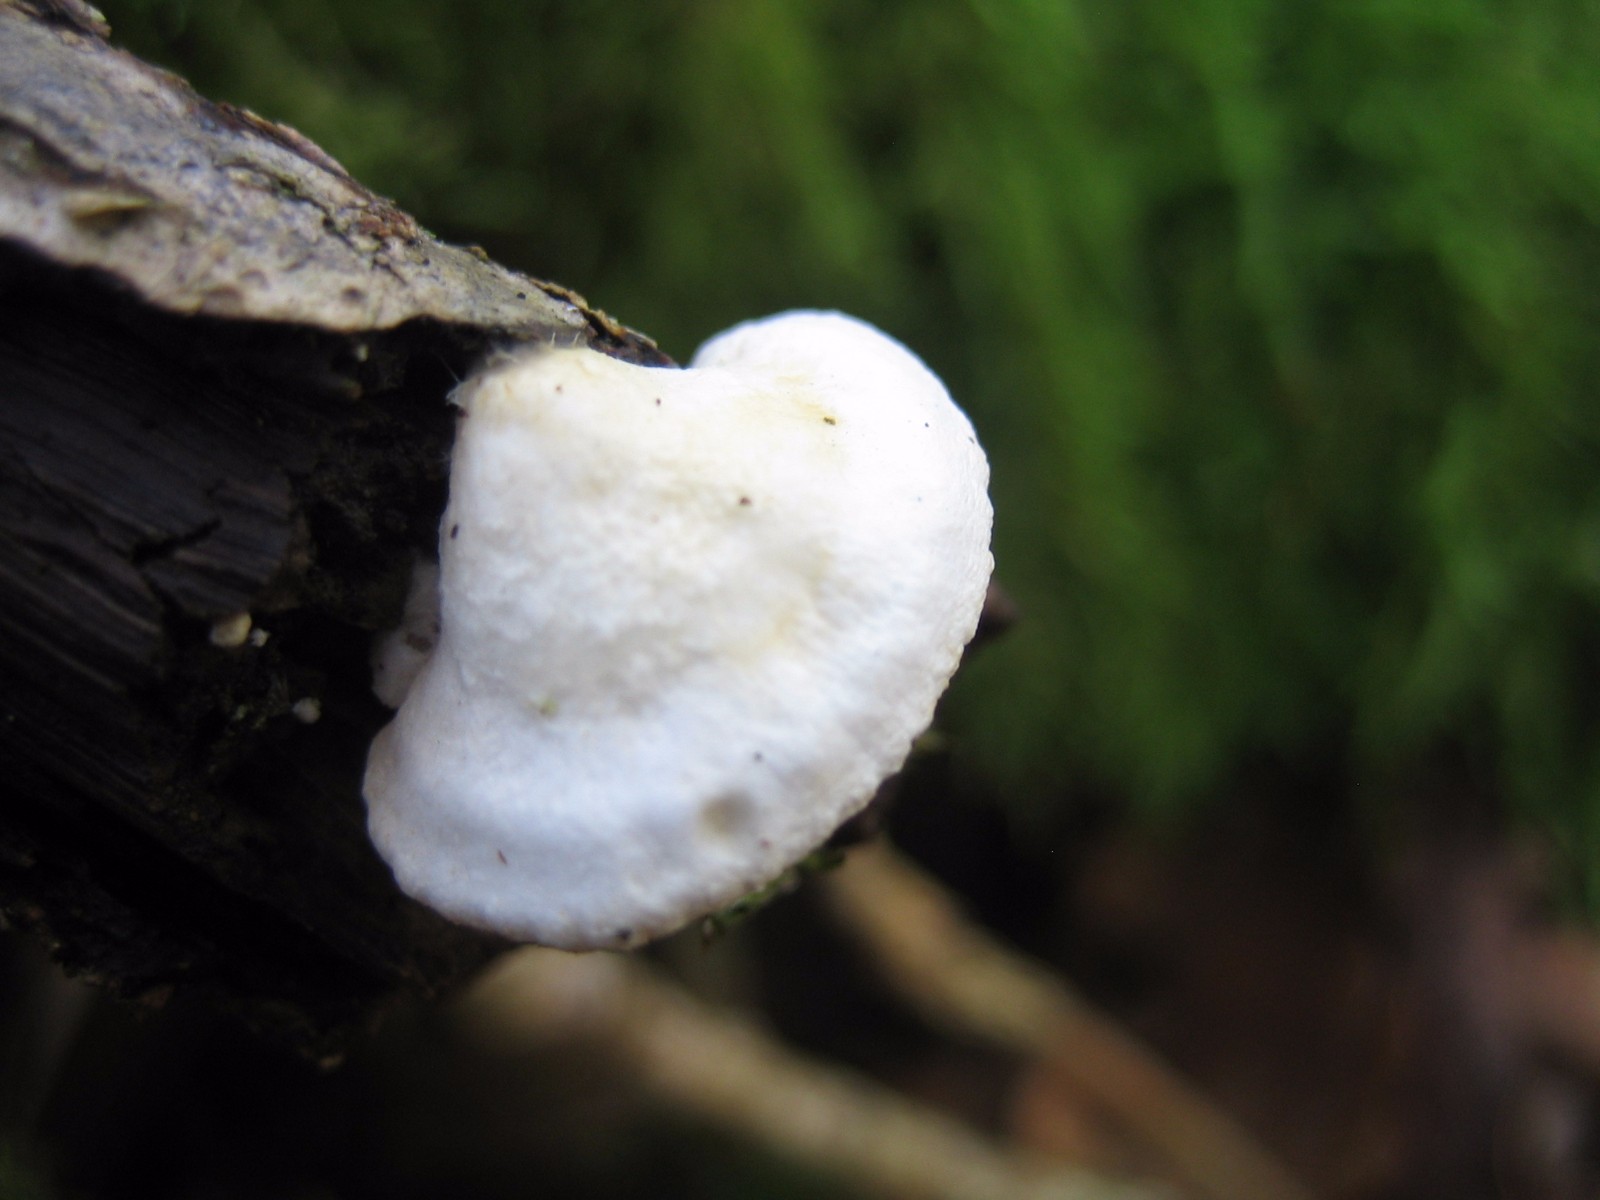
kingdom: Fungi
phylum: Basidiomycota
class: Agaricomycetes
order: Agaricales
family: Crepidotaceae
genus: Crepidotus
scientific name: Crepidotus
